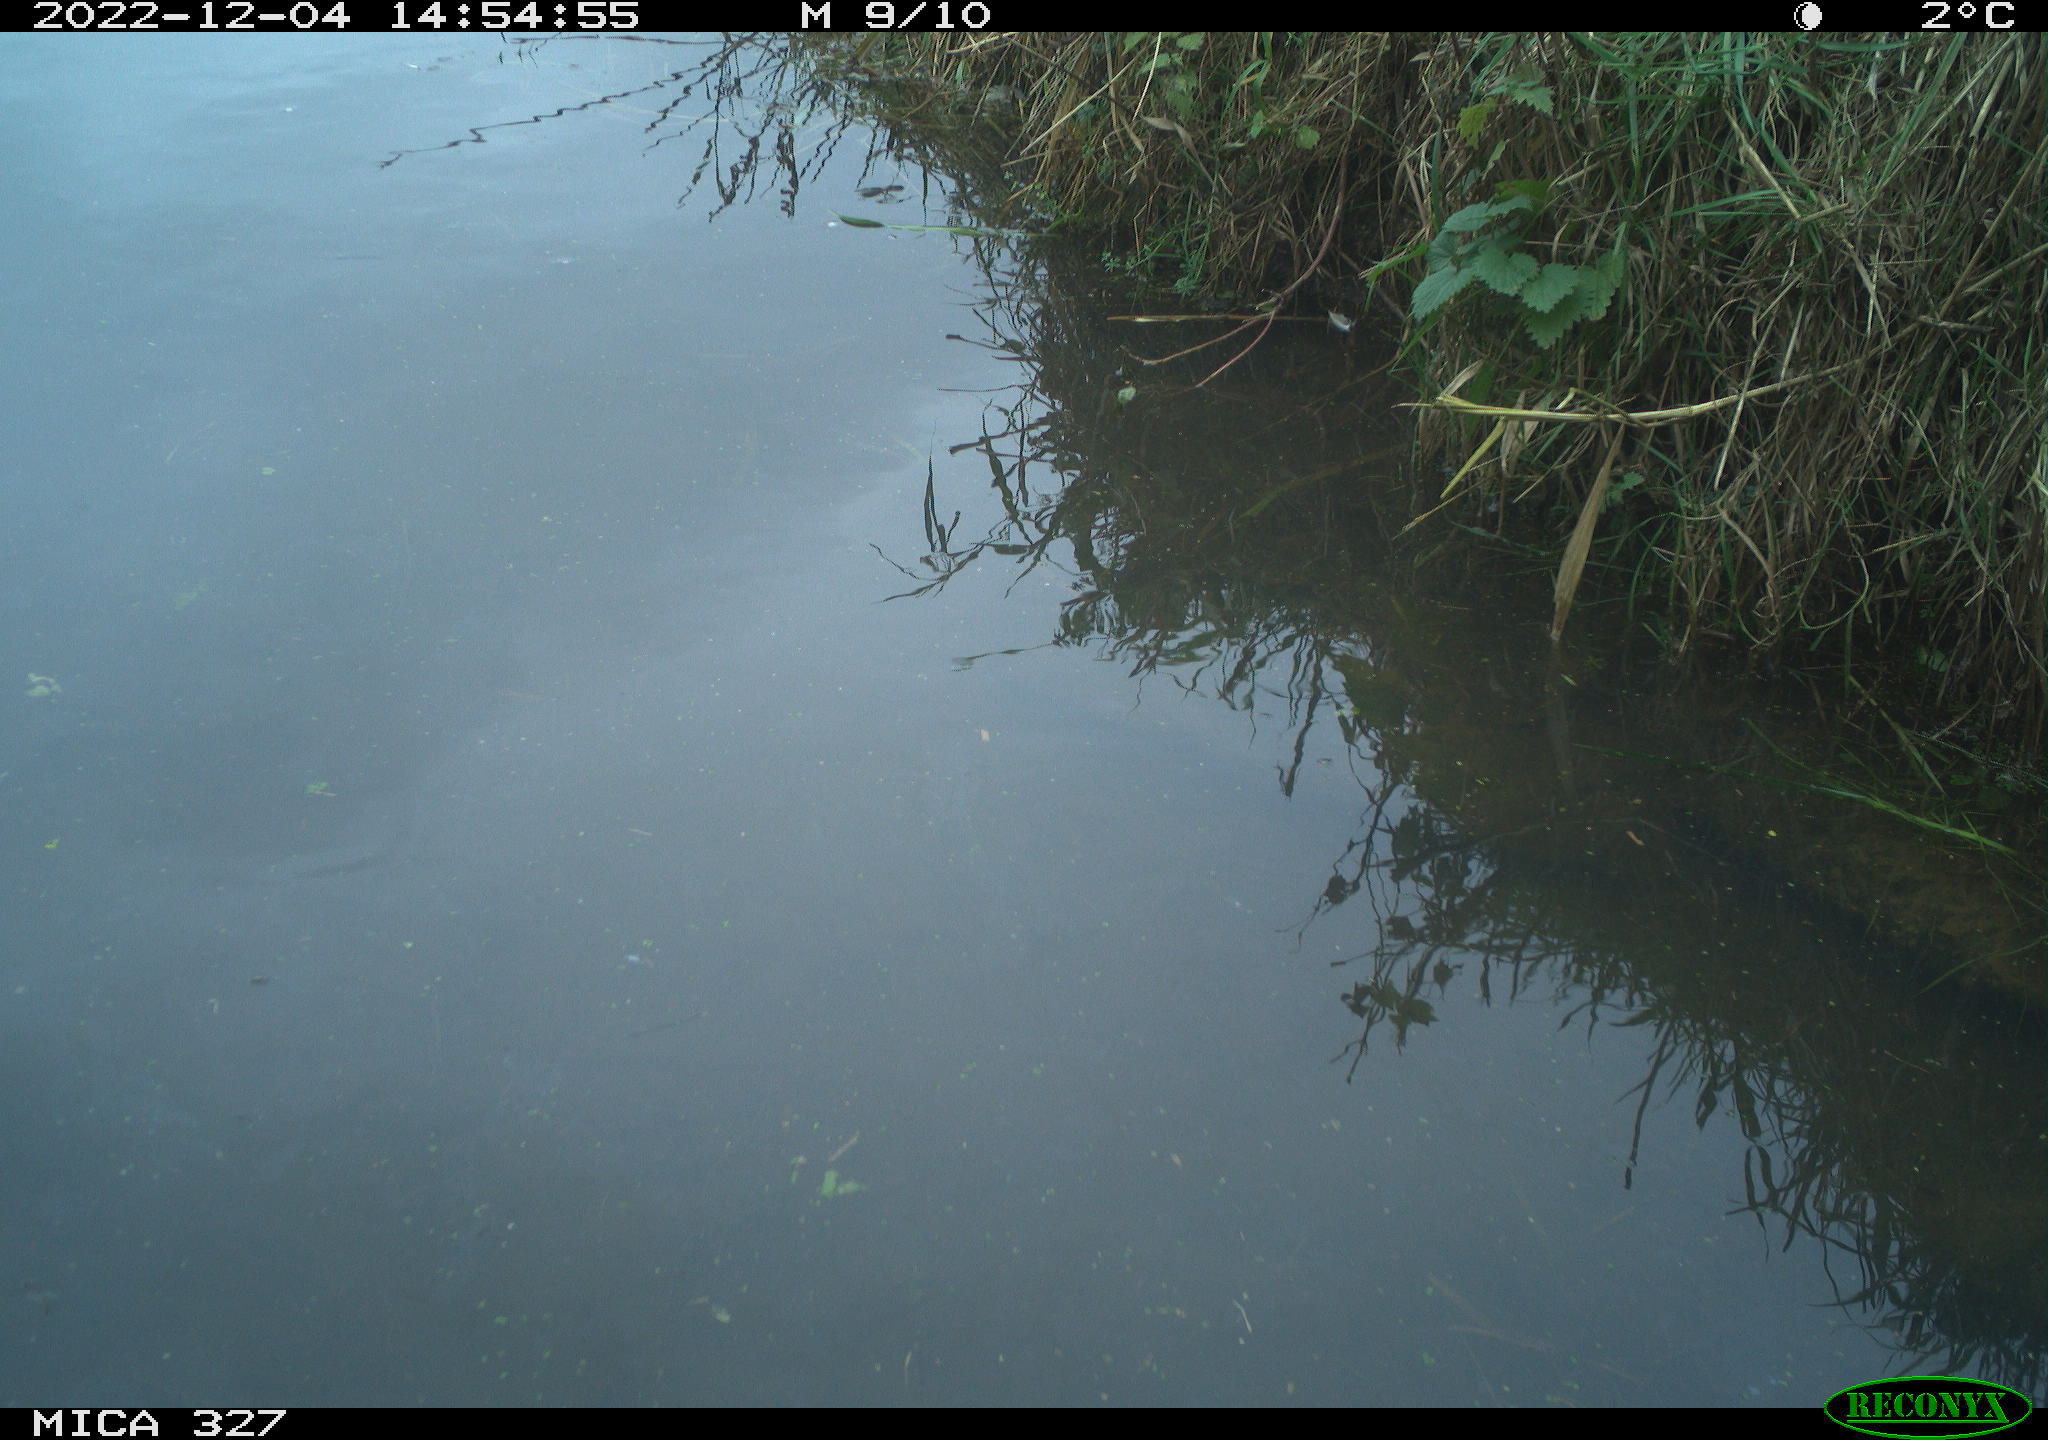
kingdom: Animalia
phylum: Chordata
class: Aves
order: Gruiformes
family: Rallidae
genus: Gallinula
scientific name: Gallinula chloropus
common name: Common moorhen
